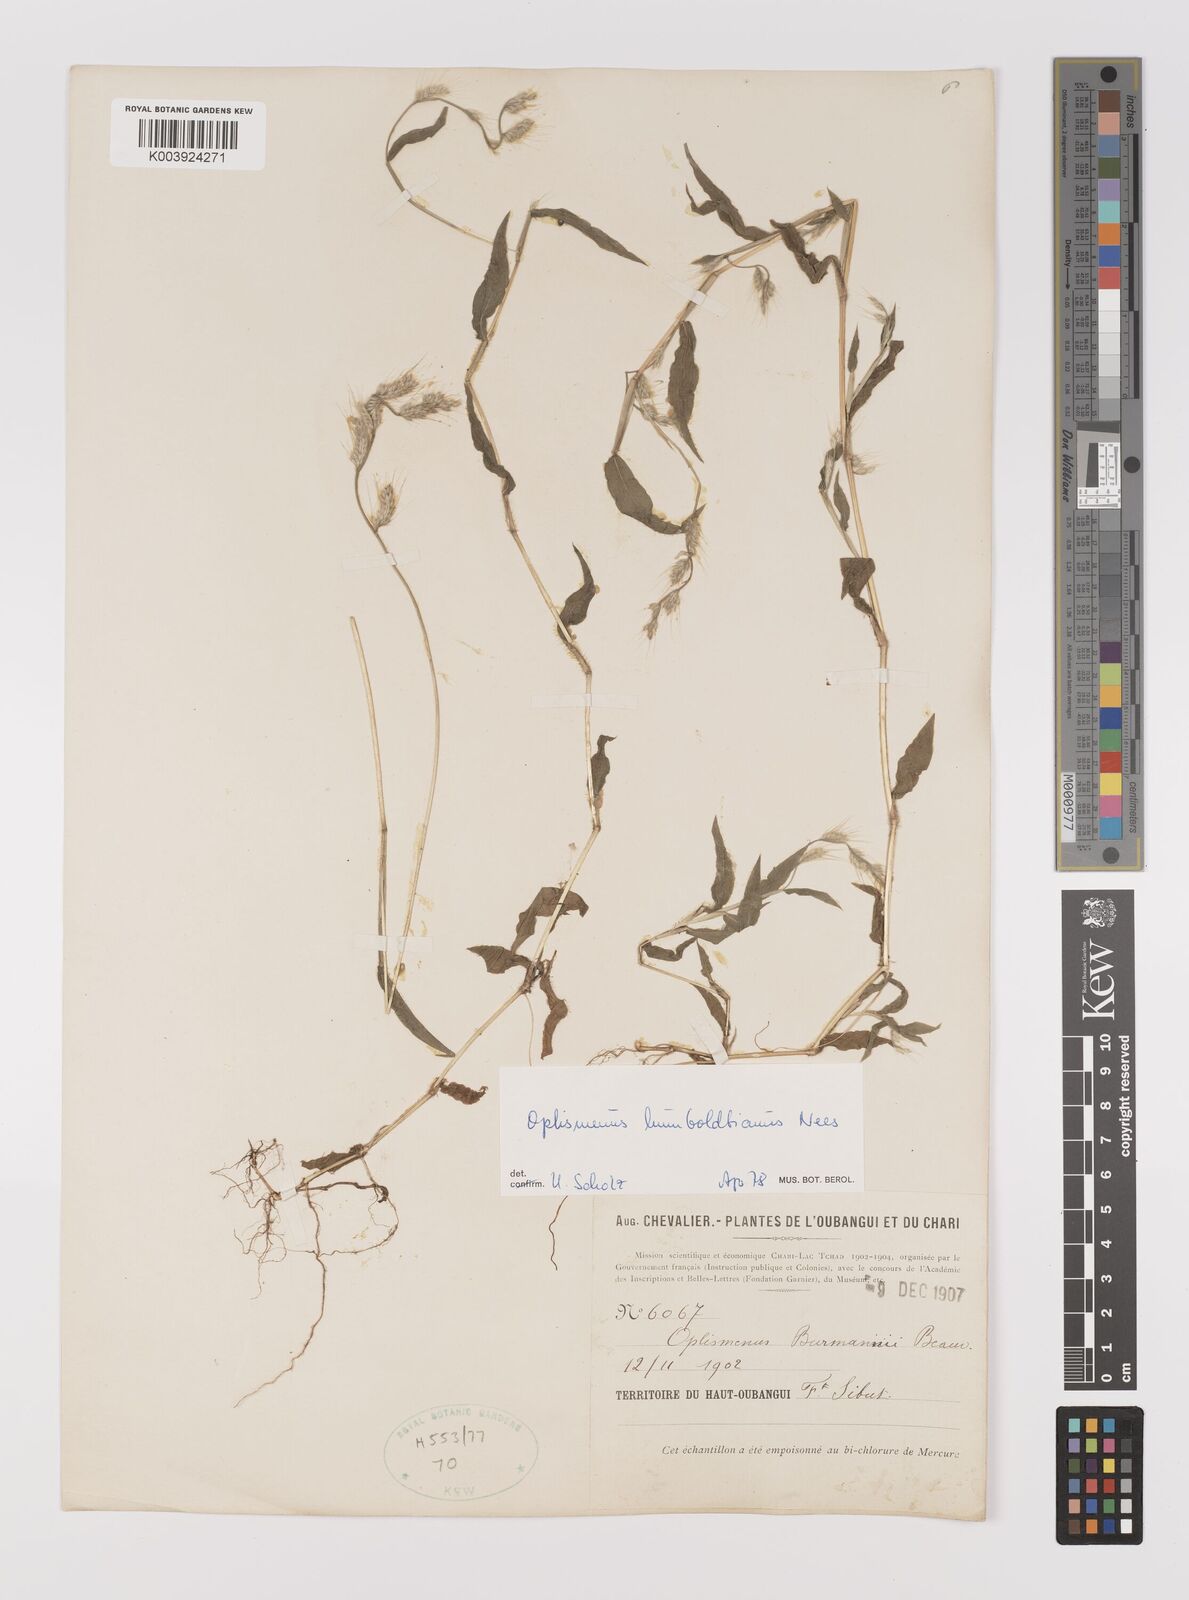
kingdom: Plantae
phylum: Tracheophyta
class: Liliopsida
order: Poales
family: Poaceae
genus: Oplismenus
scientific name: Oplismenus burmanni
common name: Burmann's basketgrass
